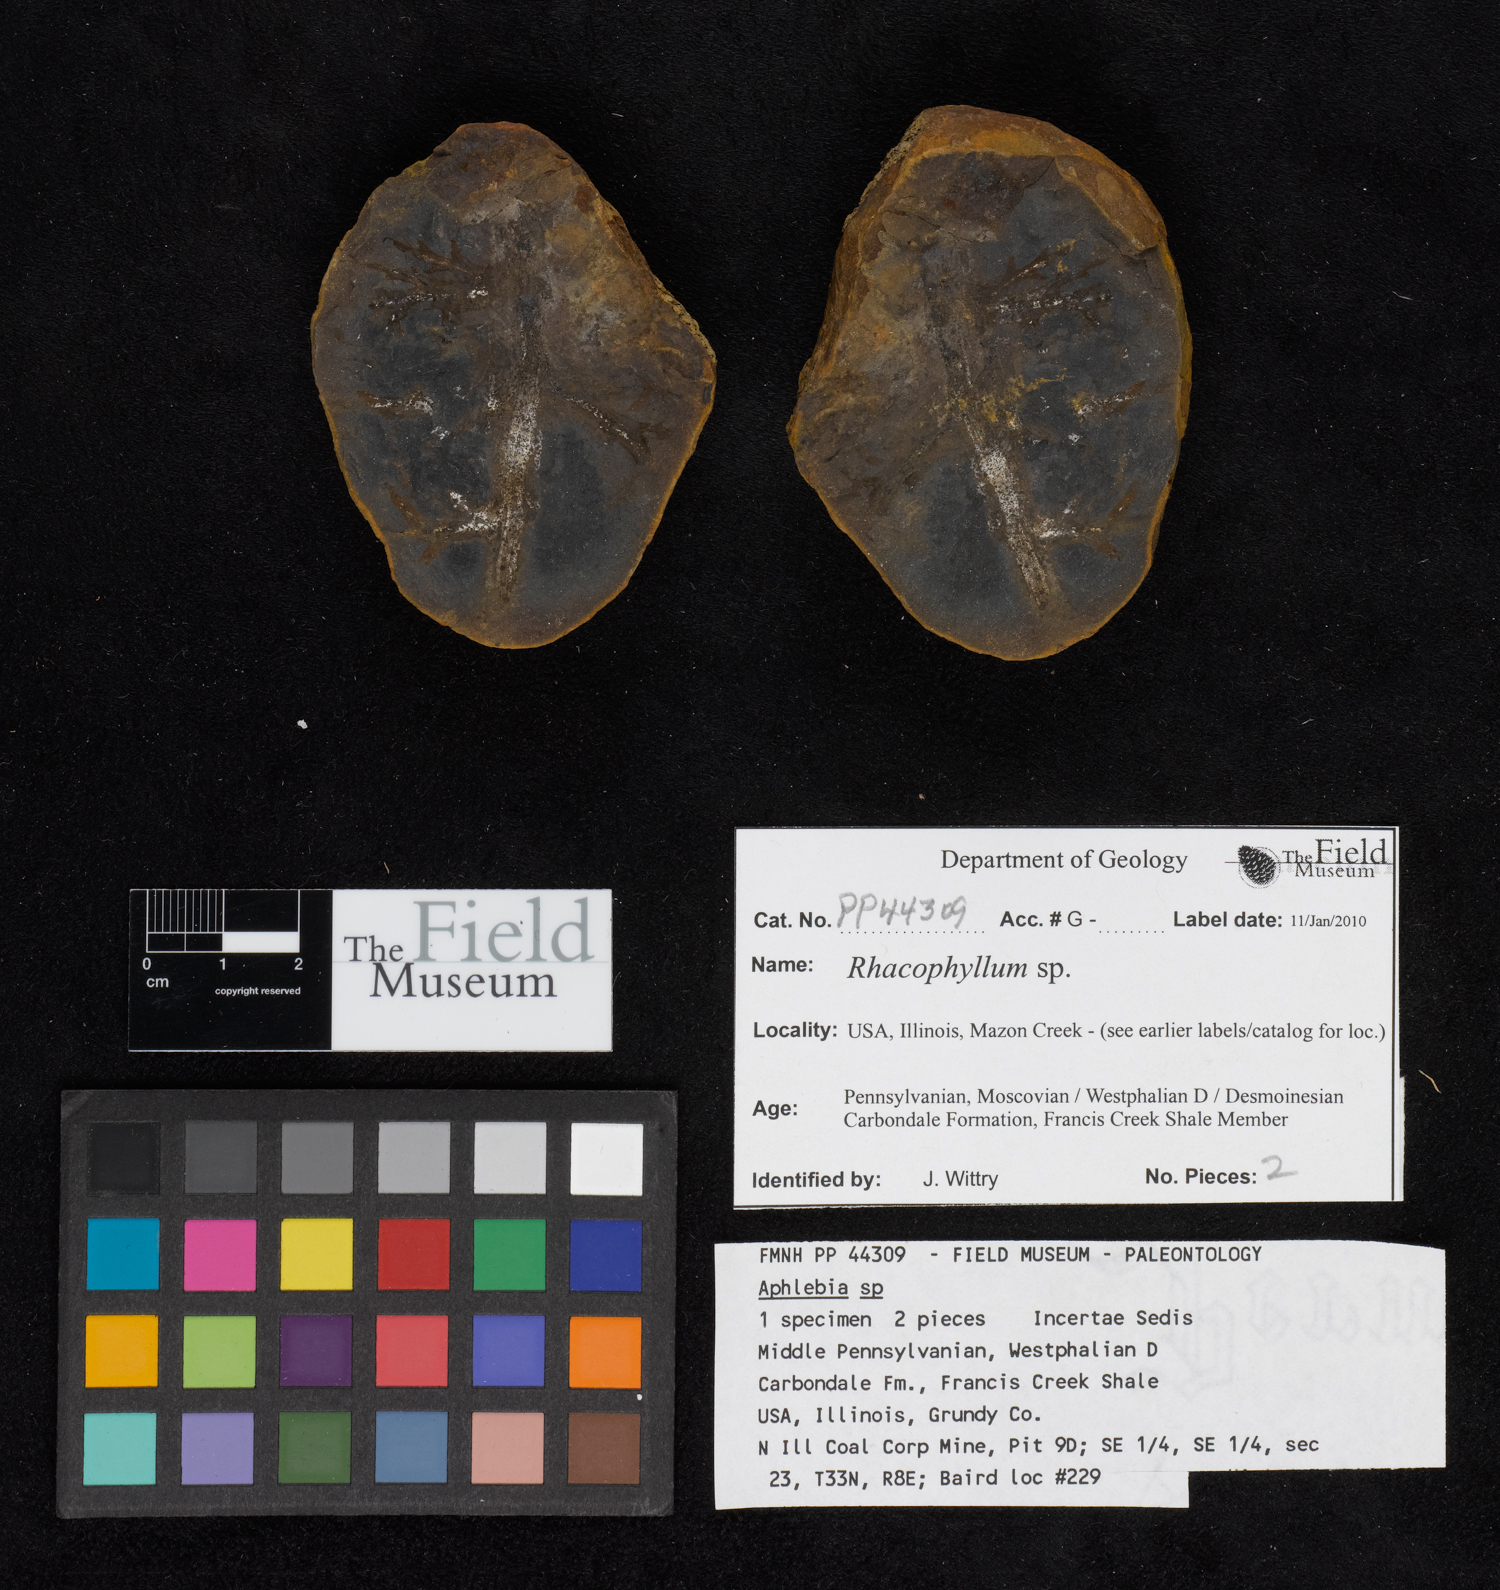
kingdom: Plantae
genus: Rhacophyllum
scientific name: Rhacophyllum
